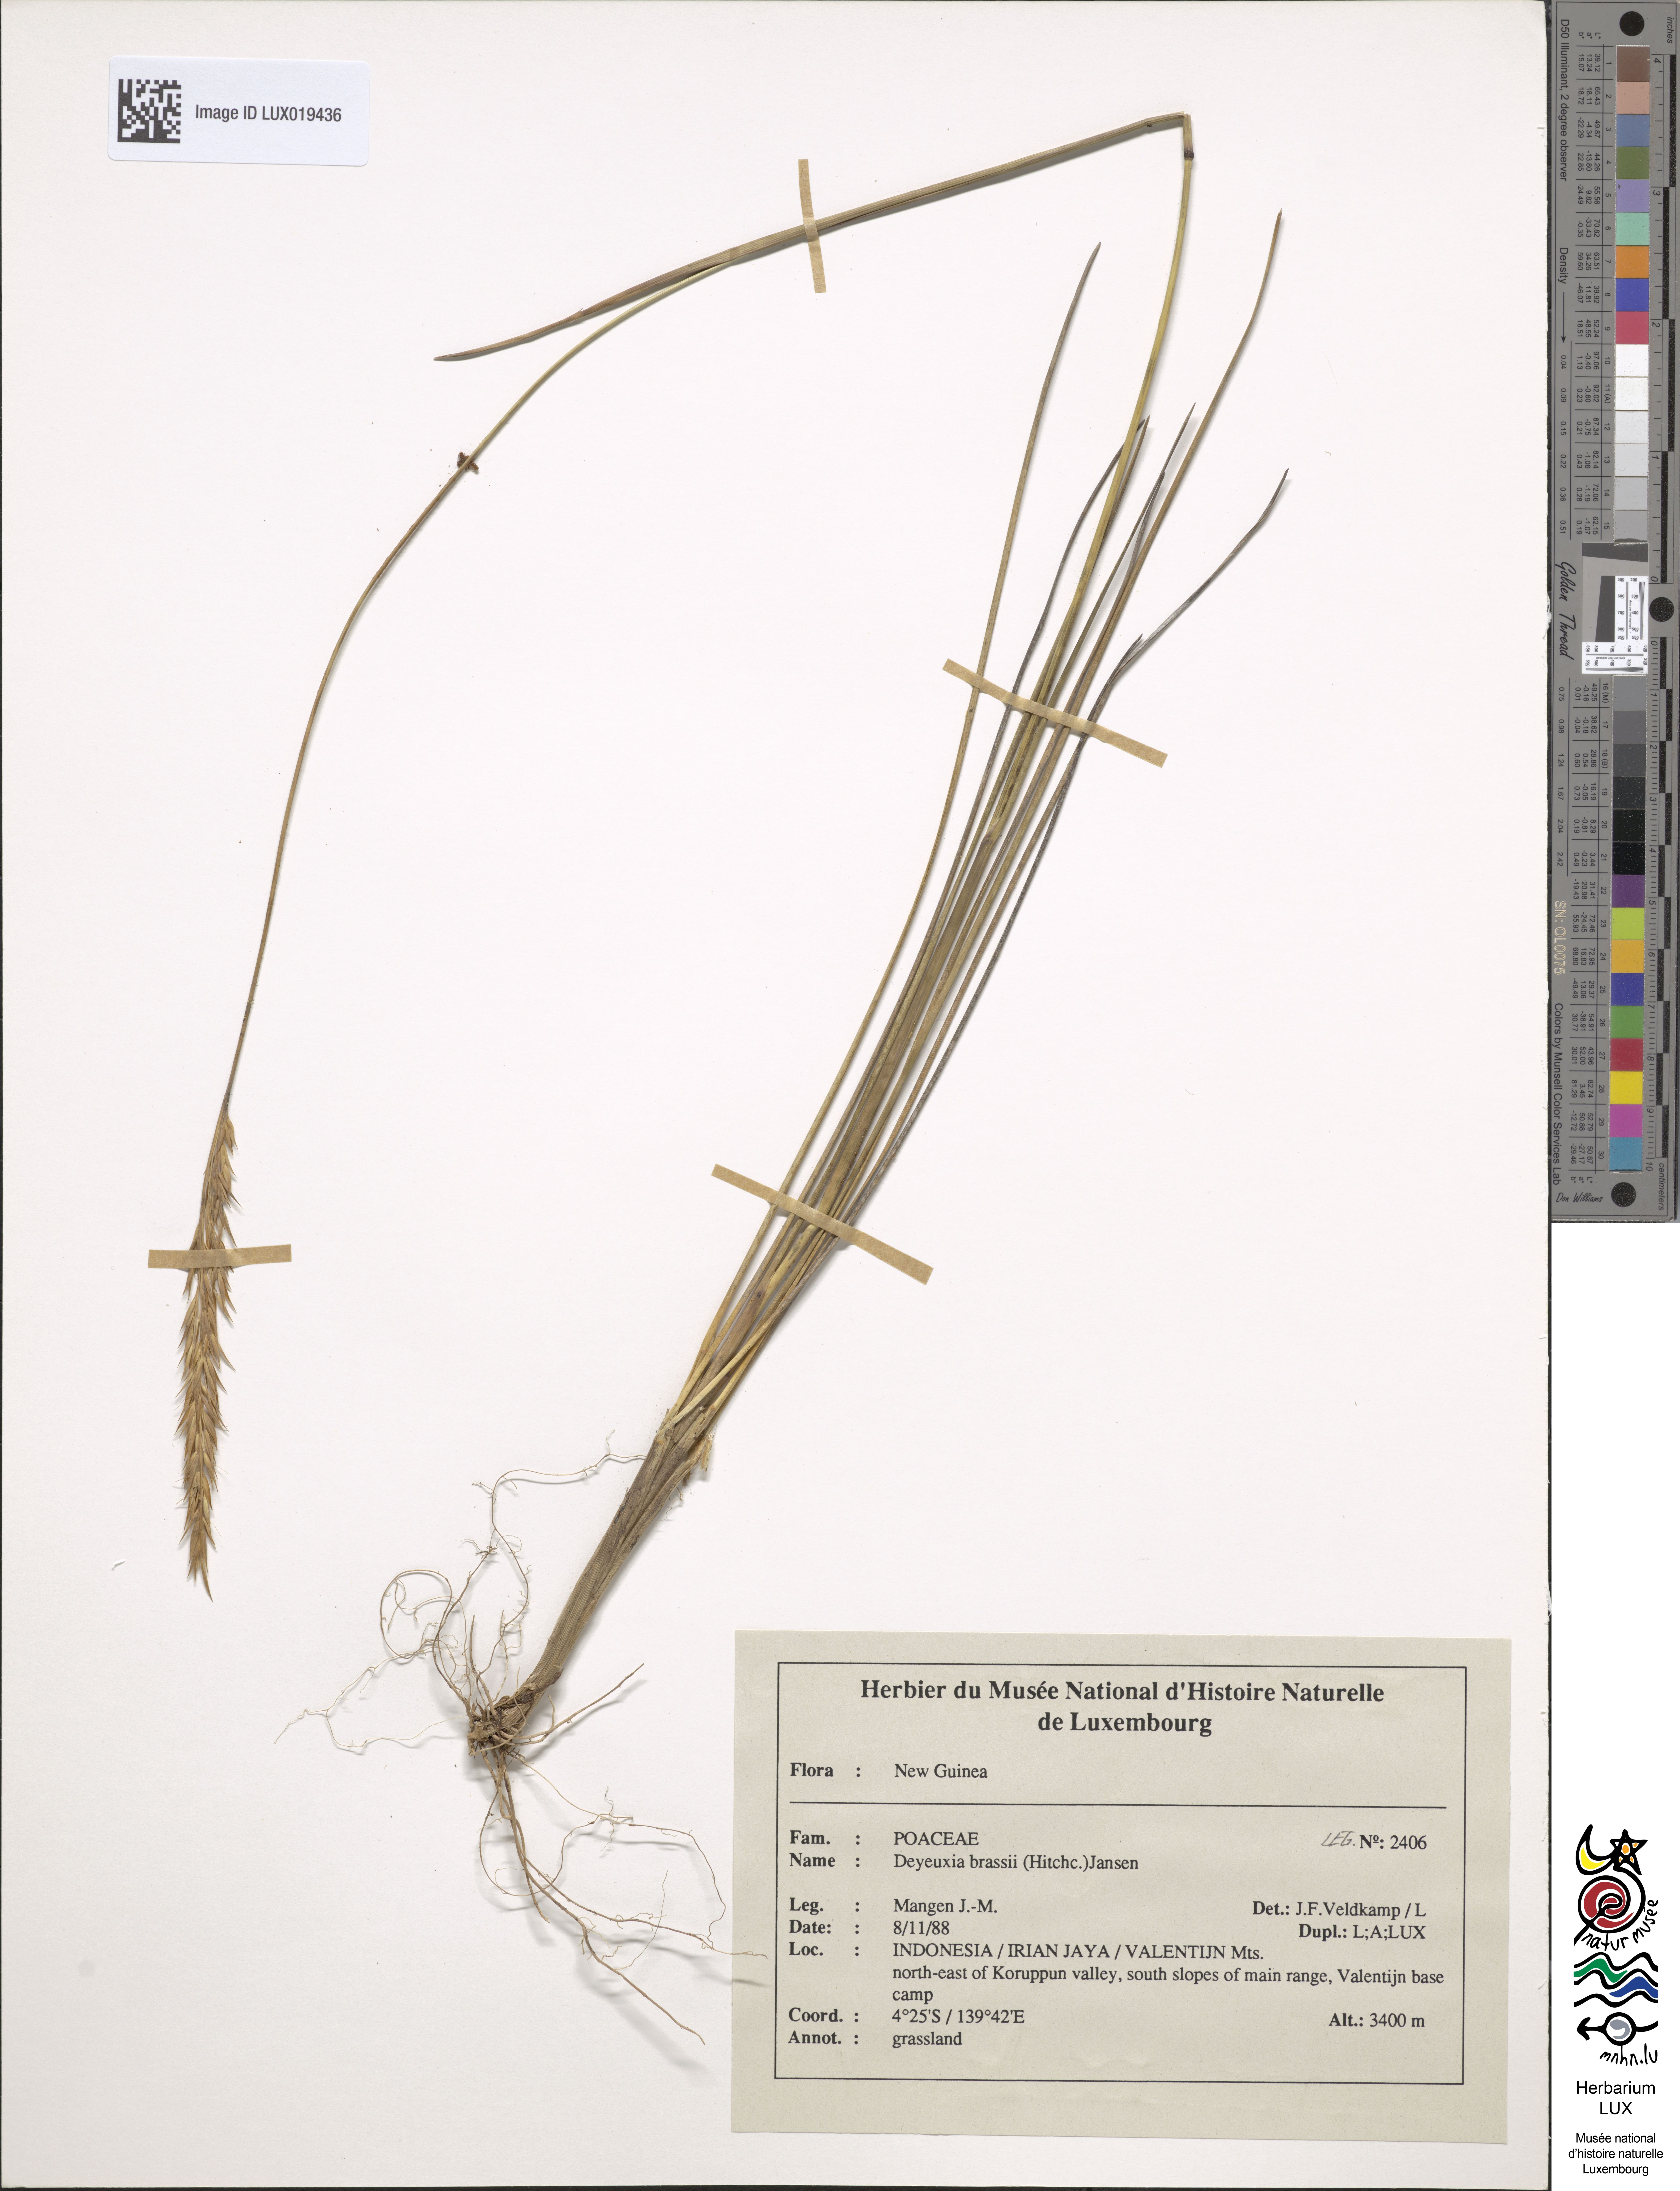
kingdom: Plantae
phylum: Tracheophyta
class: Liliopsida
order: Poales
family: Poaceae
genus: Calamagrostis
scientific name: Calamagrostis brassii
